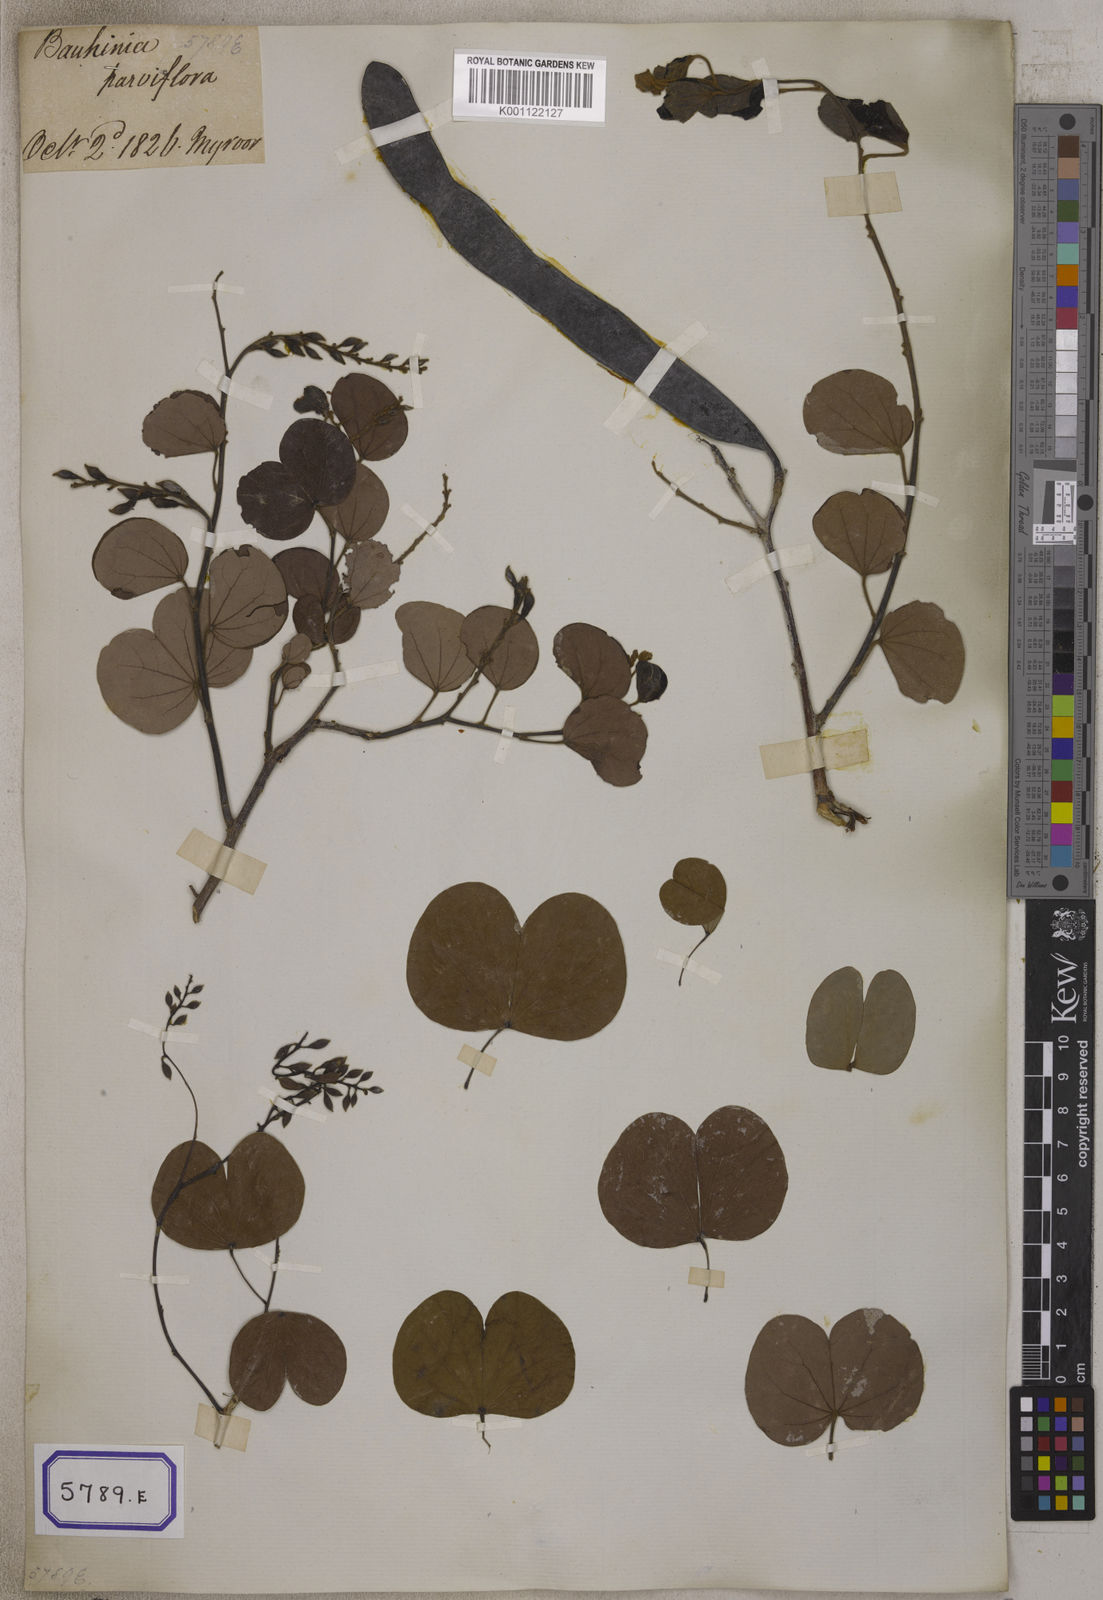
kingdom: Plantae
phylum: Tracheophyta
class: Magnoliopsida
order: Fabales
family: Fabaceae
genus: Bauhinia
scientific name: Bauhinia
